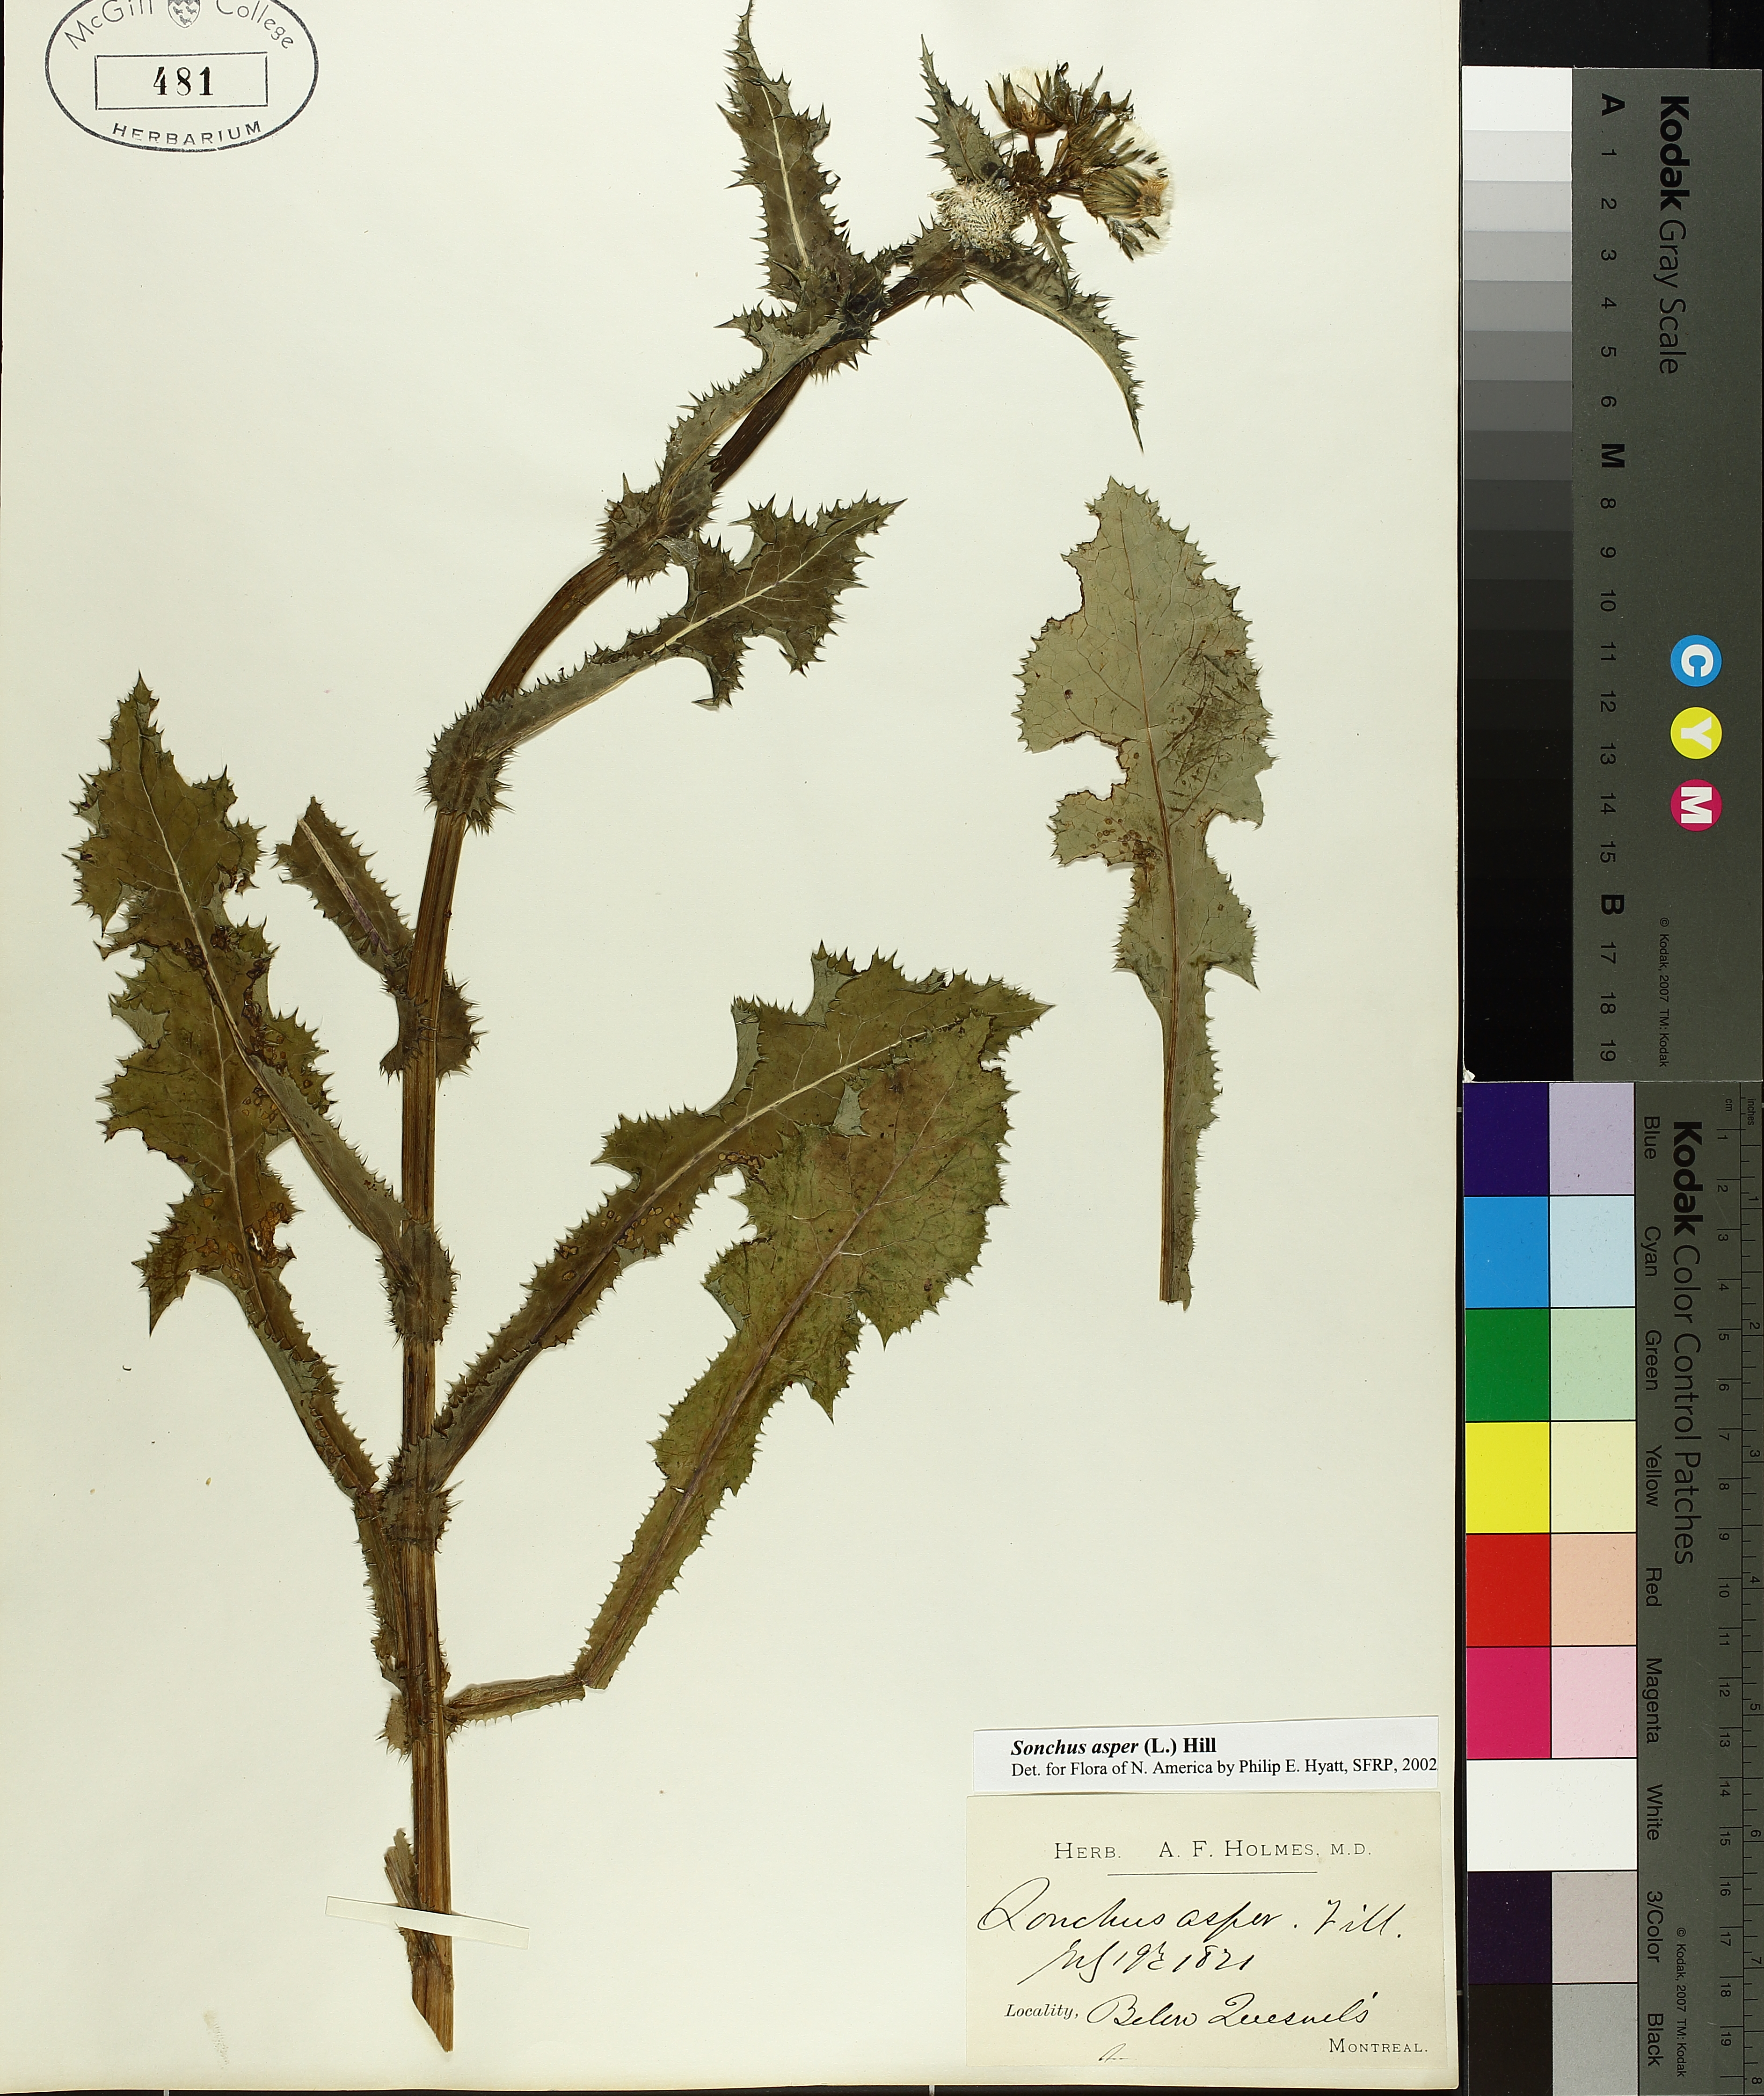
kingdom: Plantae
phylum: Tracheophyta
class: Magnoliopsida
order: Asterales
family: Asteraceae
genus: Sonchus
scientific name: Sonchus asper
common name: Prickly sow-thistle
